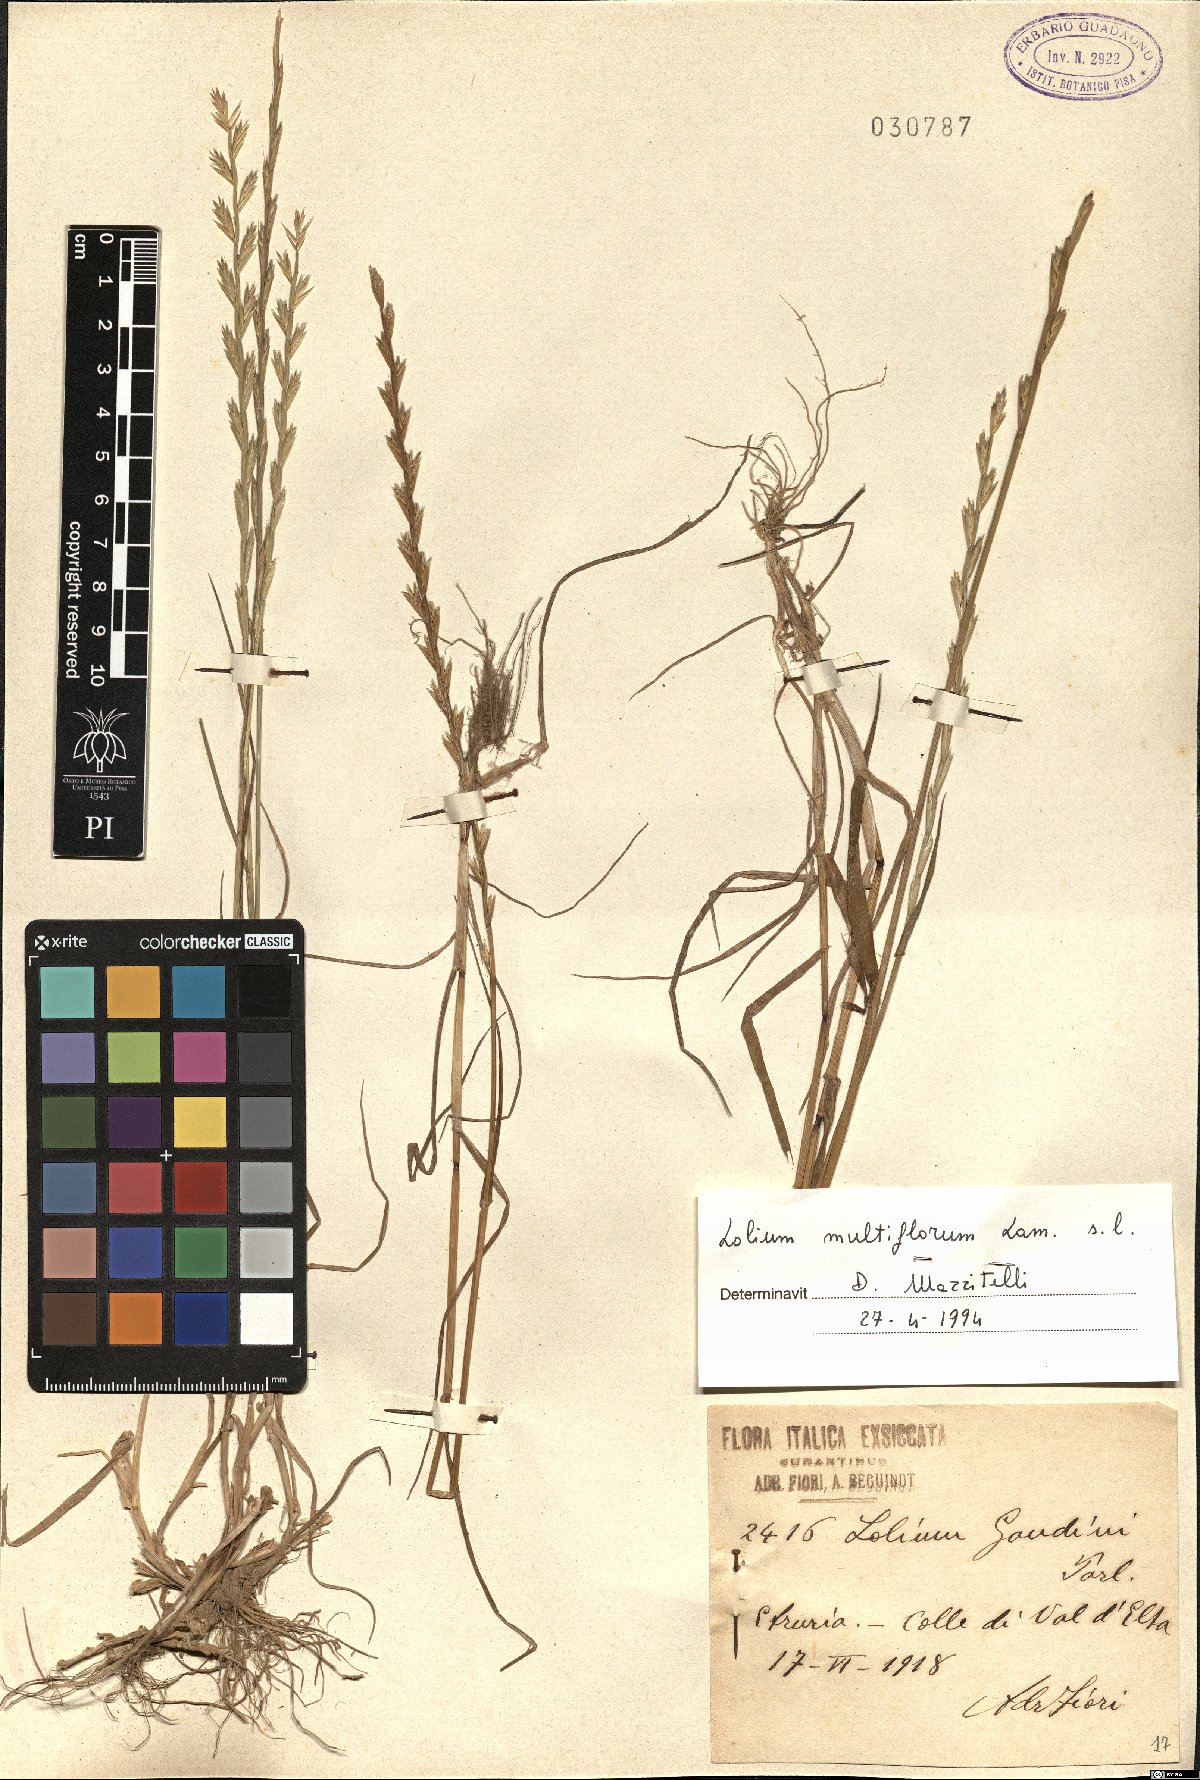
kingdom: Plantae
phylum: Tracheophyta
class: Liliopsida
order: Poales
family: Poaceae
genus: Lolium
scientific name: Lolium multiflorum
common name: Annual ryegrass
